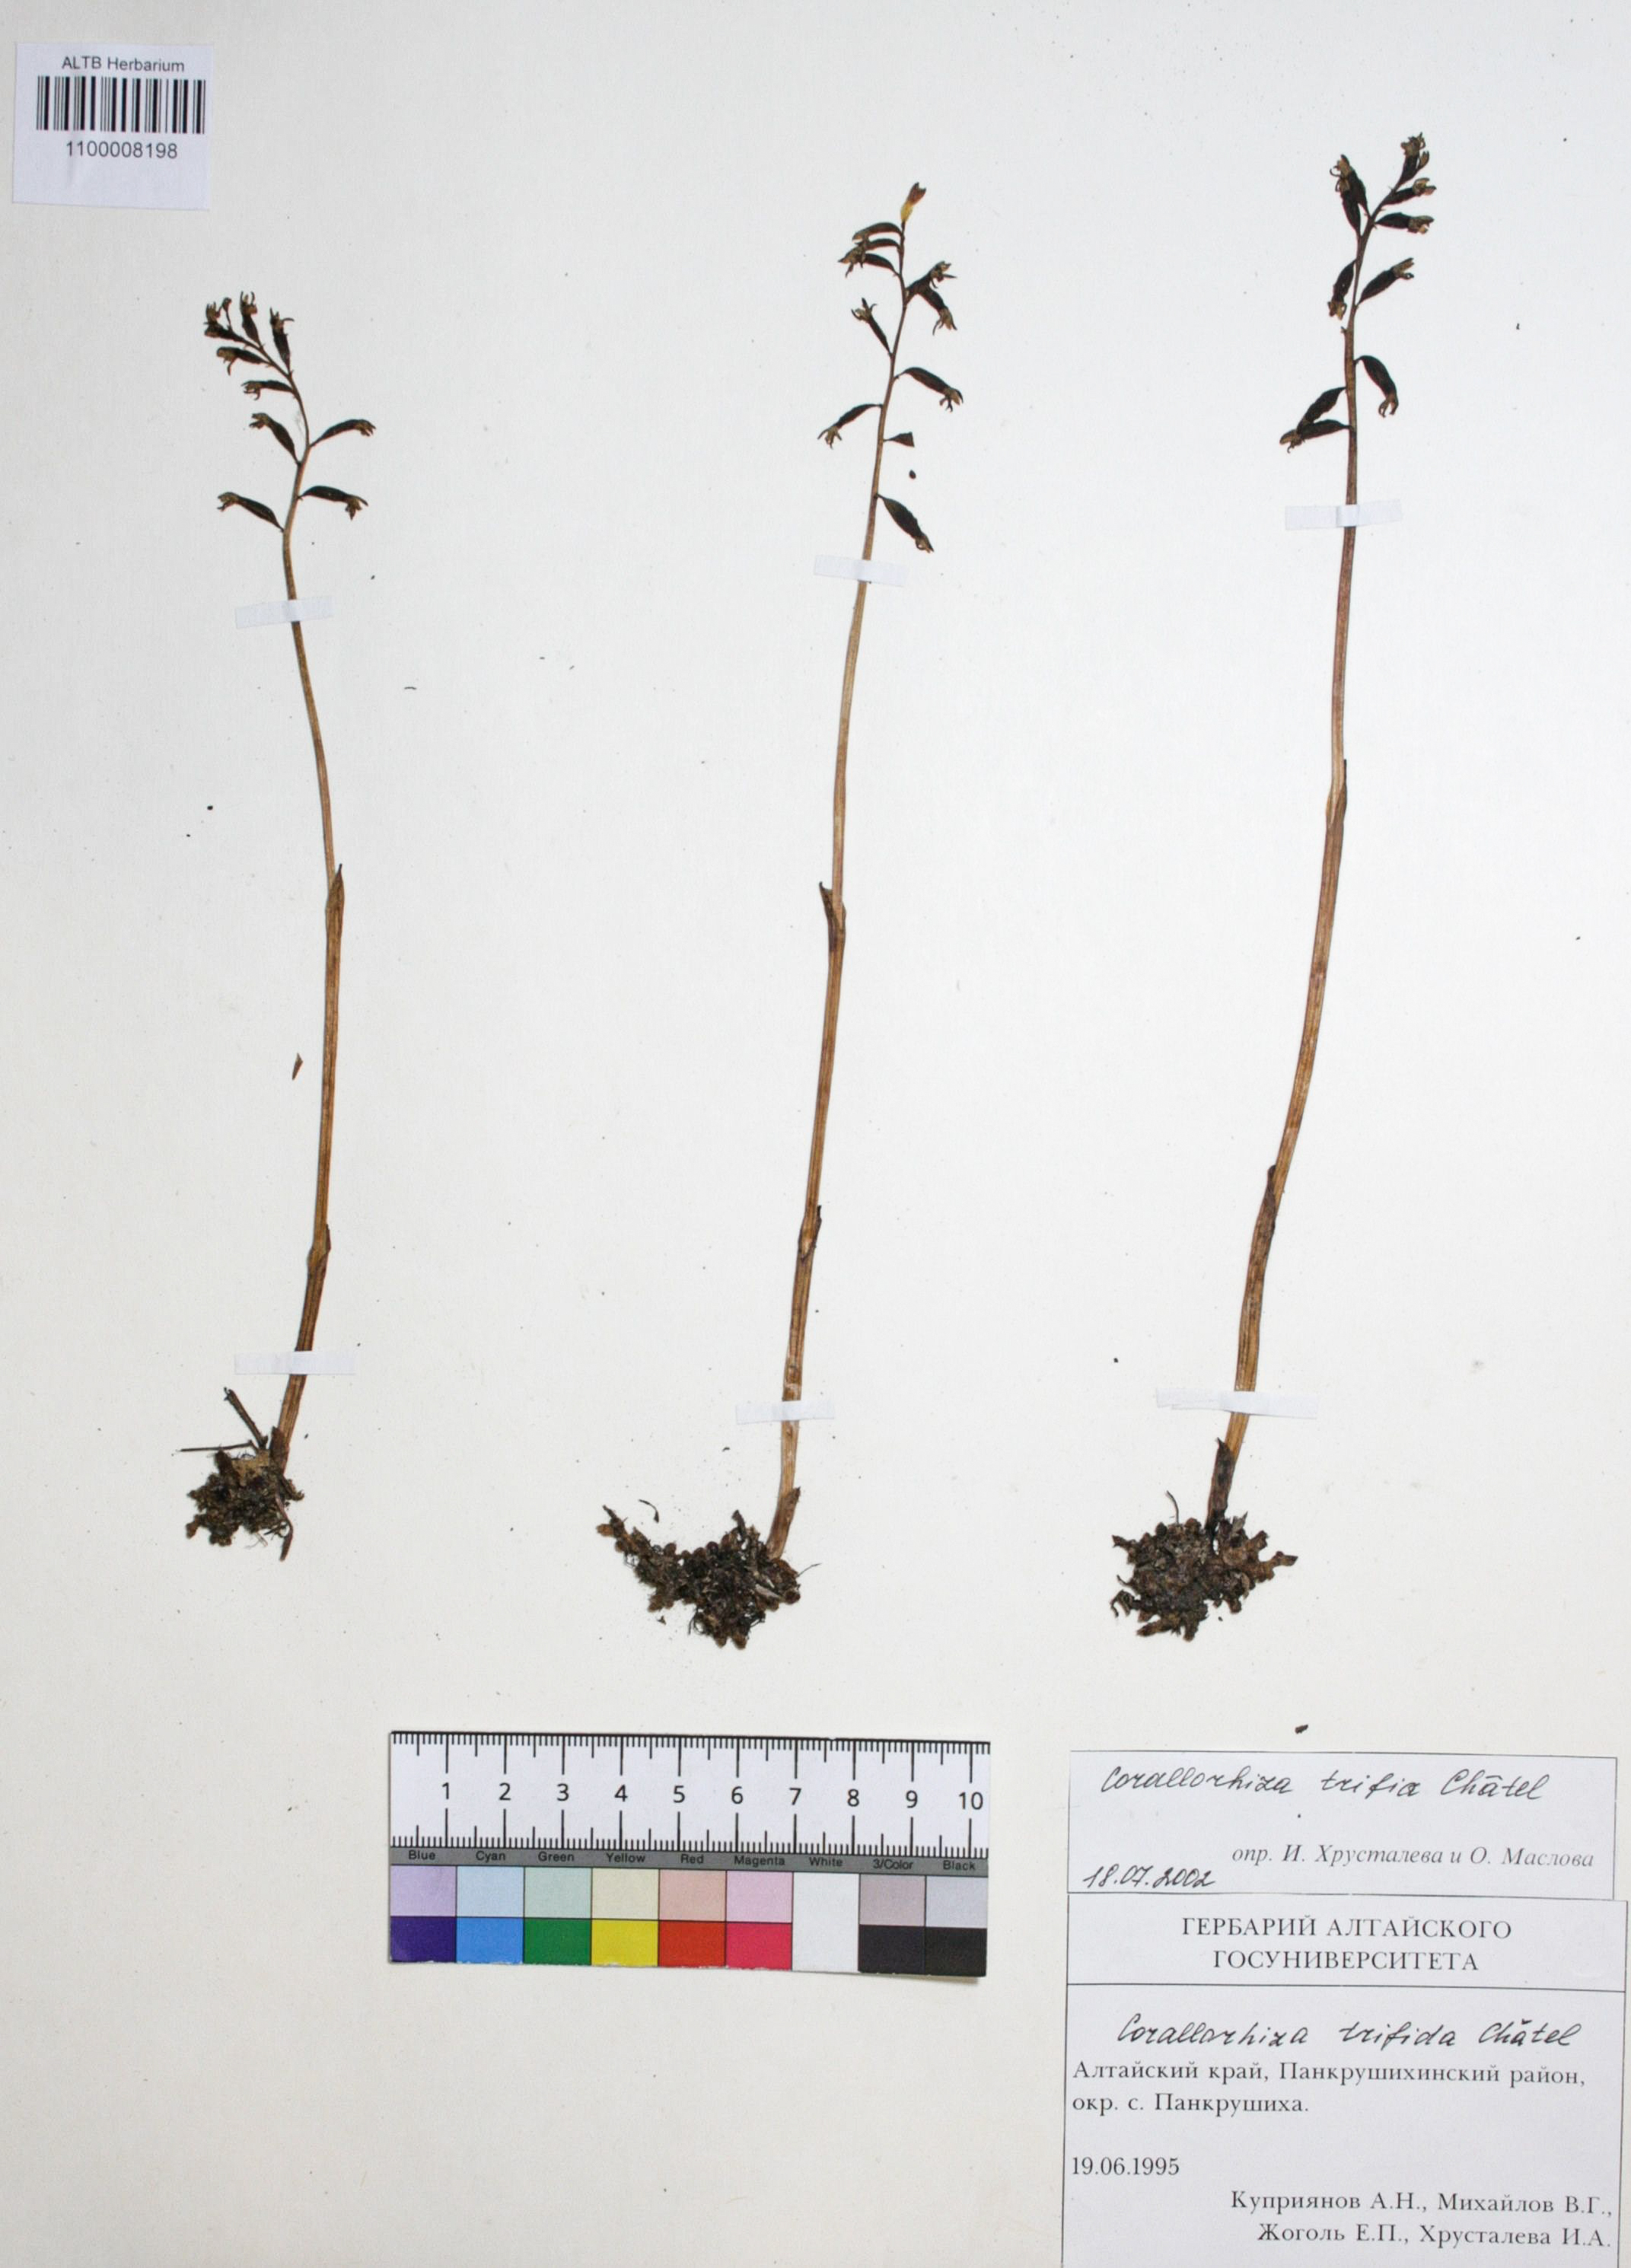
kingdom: Plantae
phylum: Tracheophyta
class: Liliopsida
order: Asparagales
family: Orchidaceae
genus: Corallorhiza
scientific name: Corallorhiza trifida
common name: Yellow coralroot
